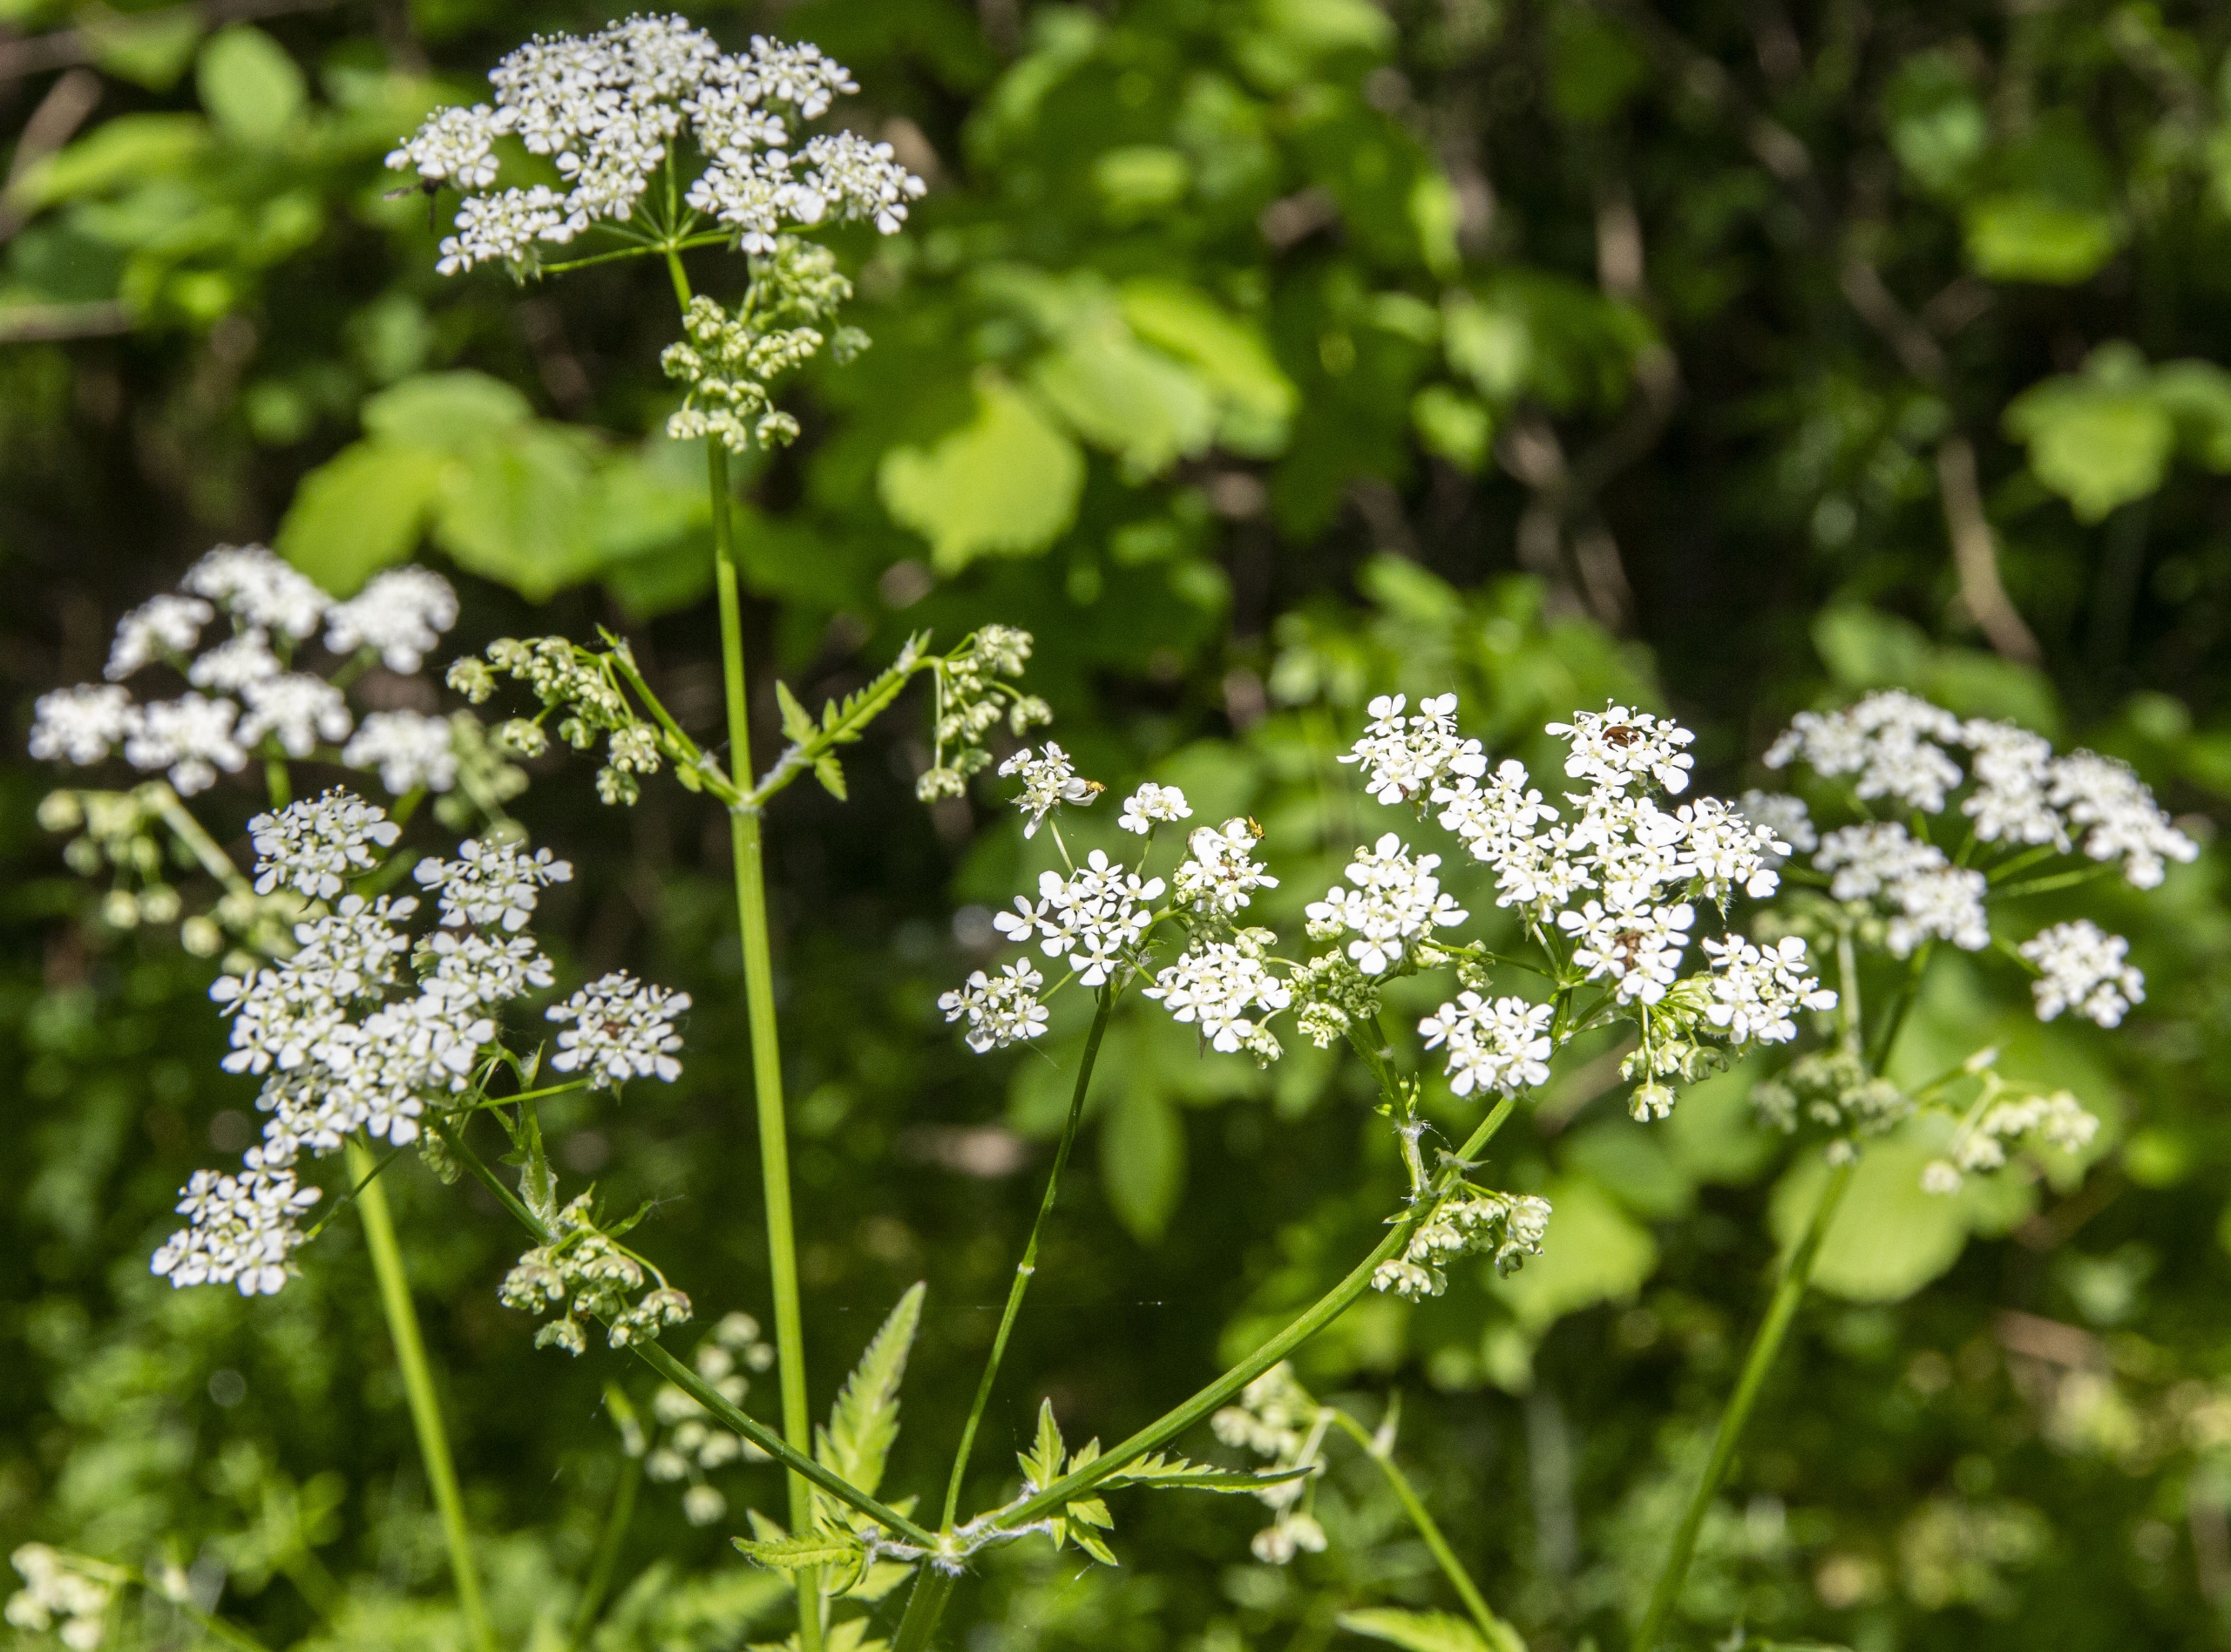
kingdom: Plantae
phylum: Tracheophyta
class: Magnoliopsida
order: Apiales
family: Apiaceae
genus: Anthriscus
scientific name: Anthriscus sylvestris
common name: Vild kørvel
